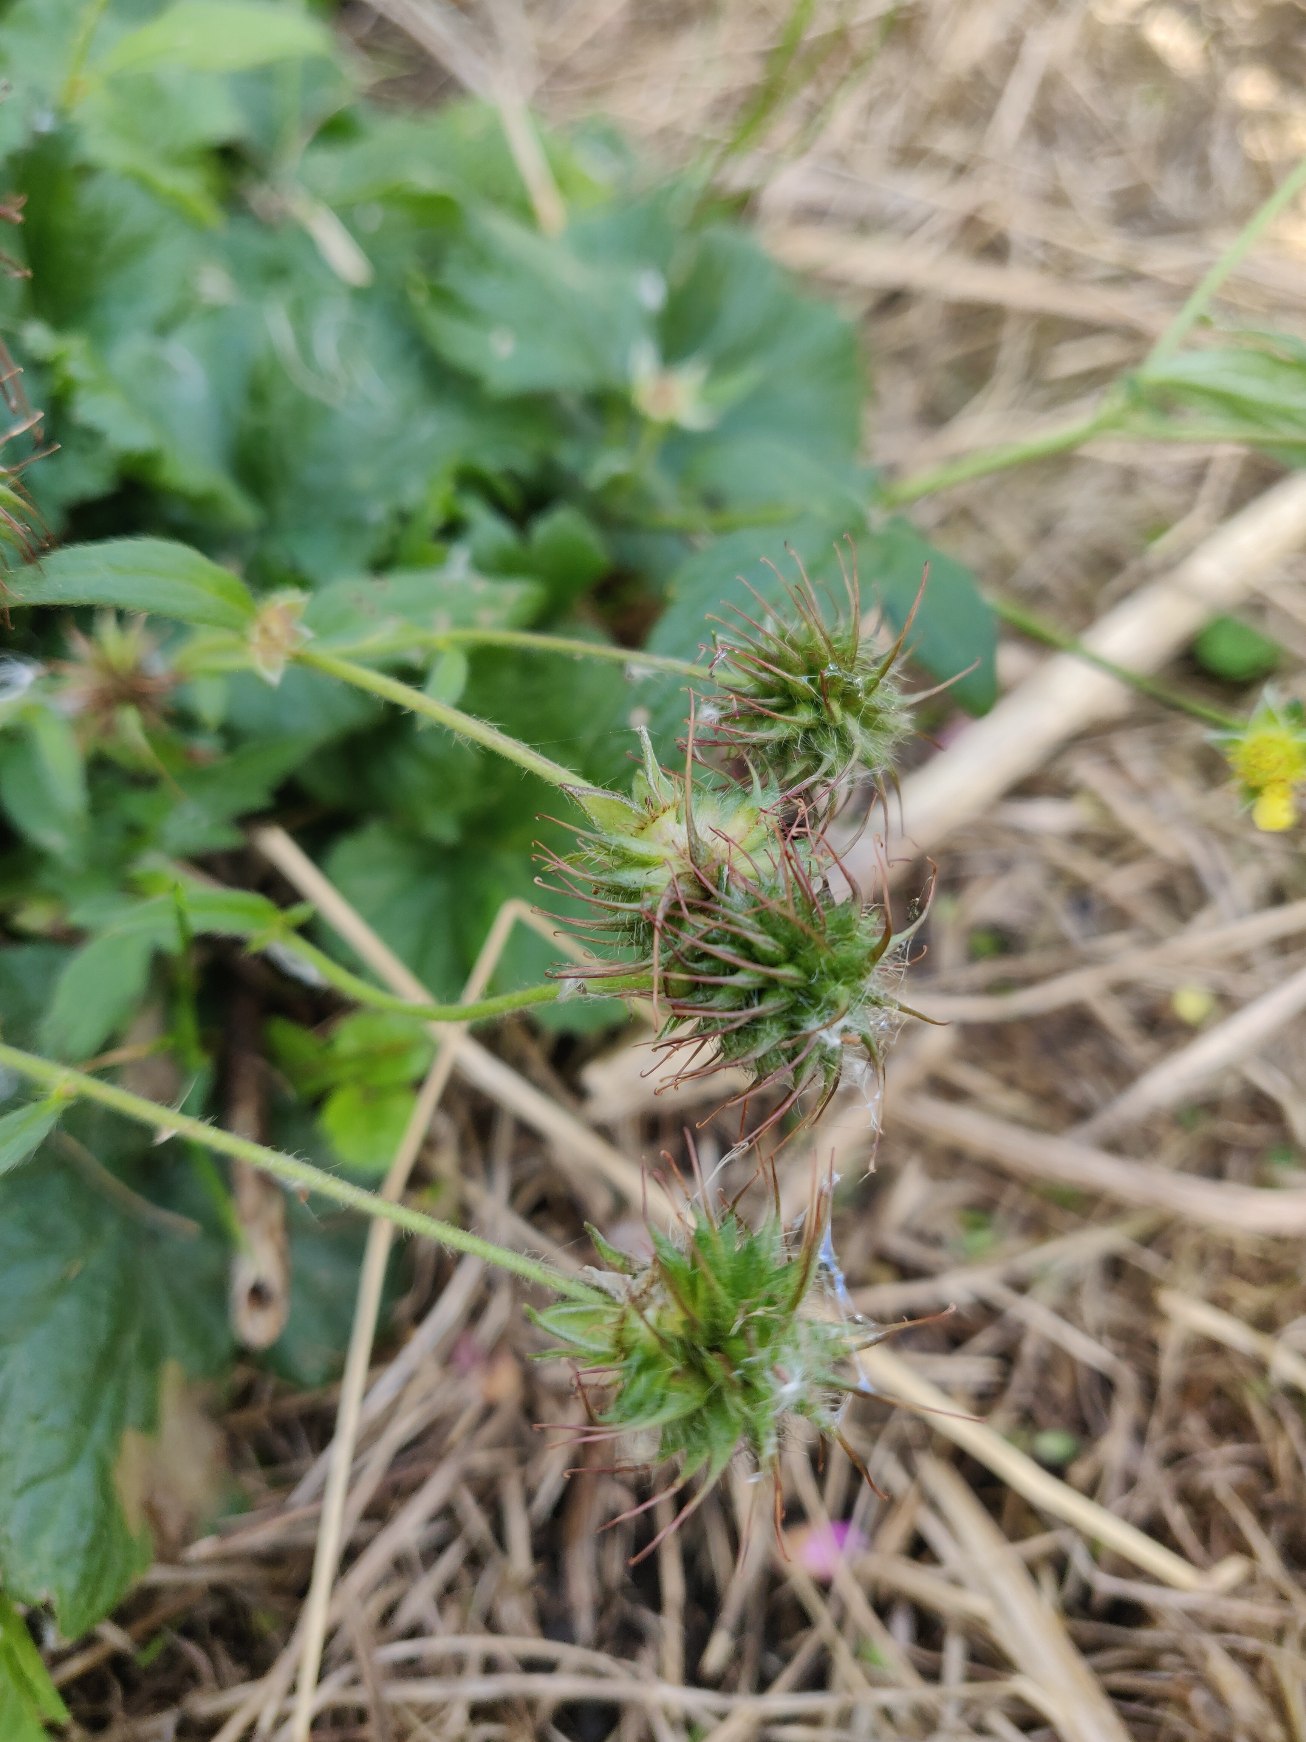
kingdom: Plantae
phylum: Tracheophyta
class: Magnoliopsida
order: Rosales
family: Rosaceae
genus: Geum
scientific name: Geum urbanum
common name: Feber-nellikerod
